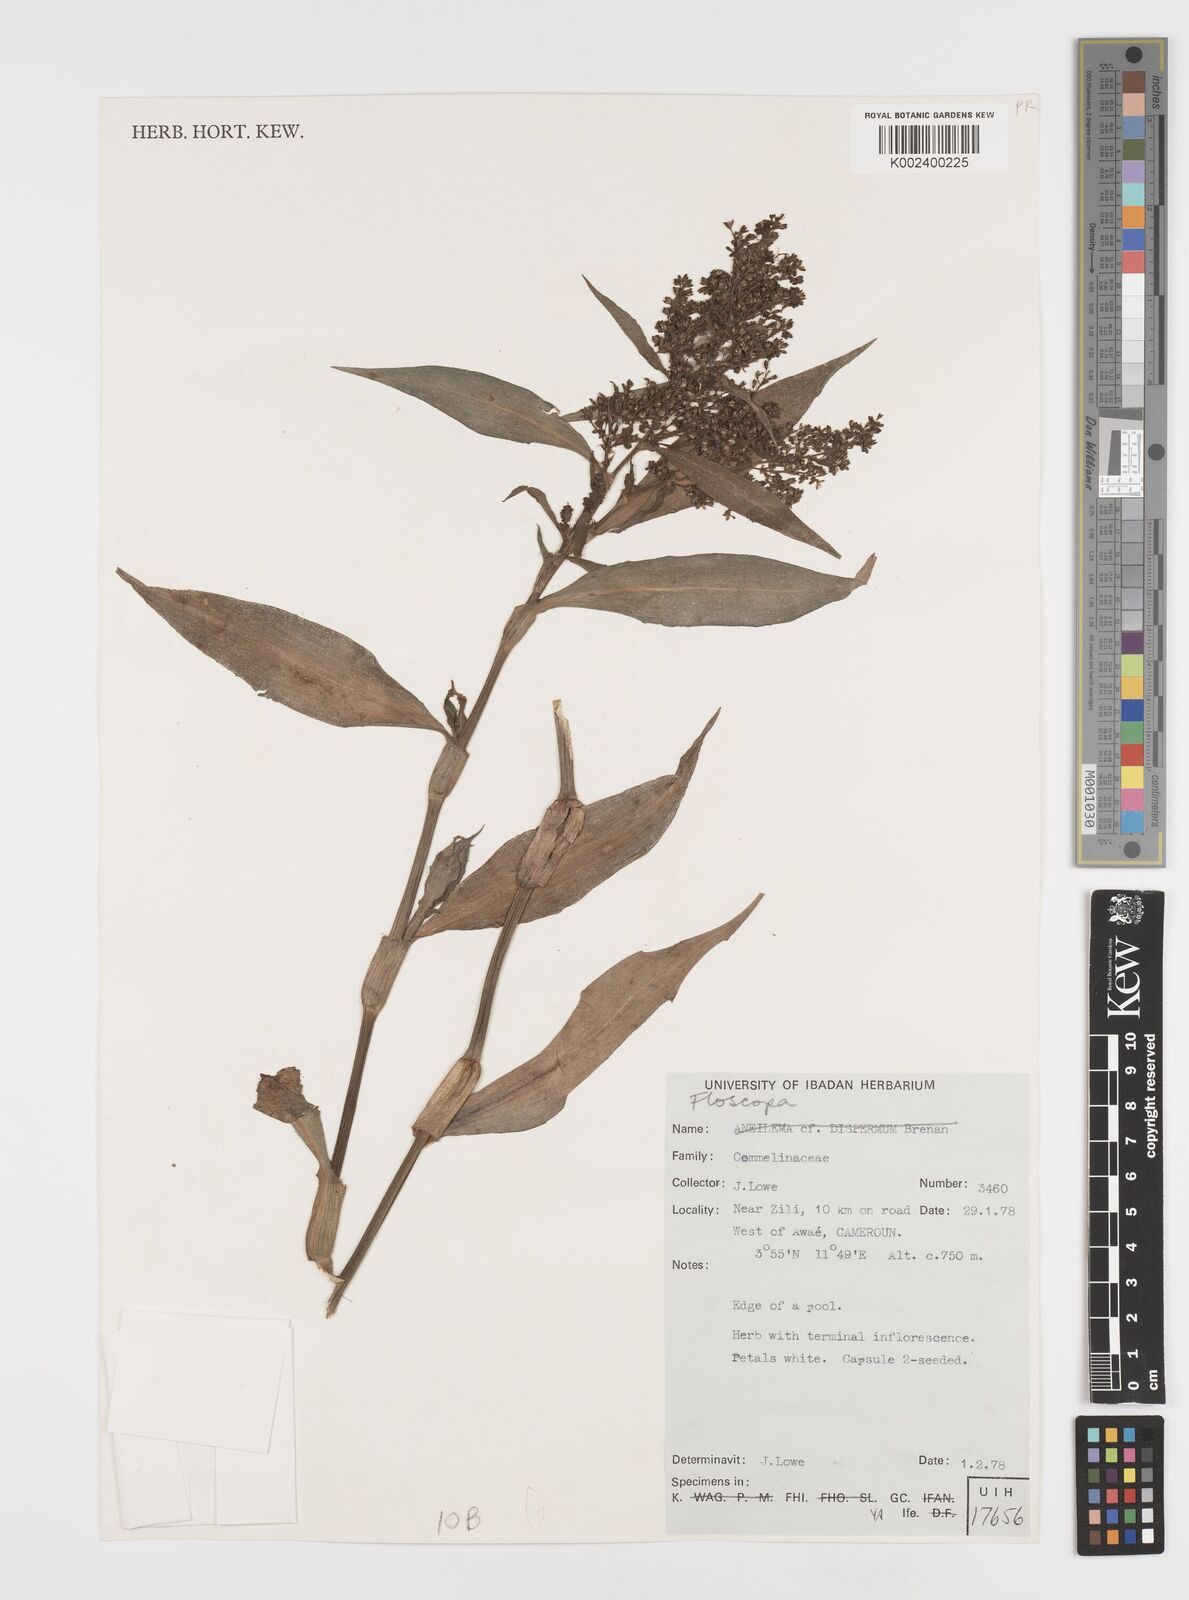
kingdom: Plantae
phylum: Tracheophyta
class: Liliopsida
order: Commelinales
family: Commelinaceae
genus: Floscopa
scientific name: Floscopa africana
